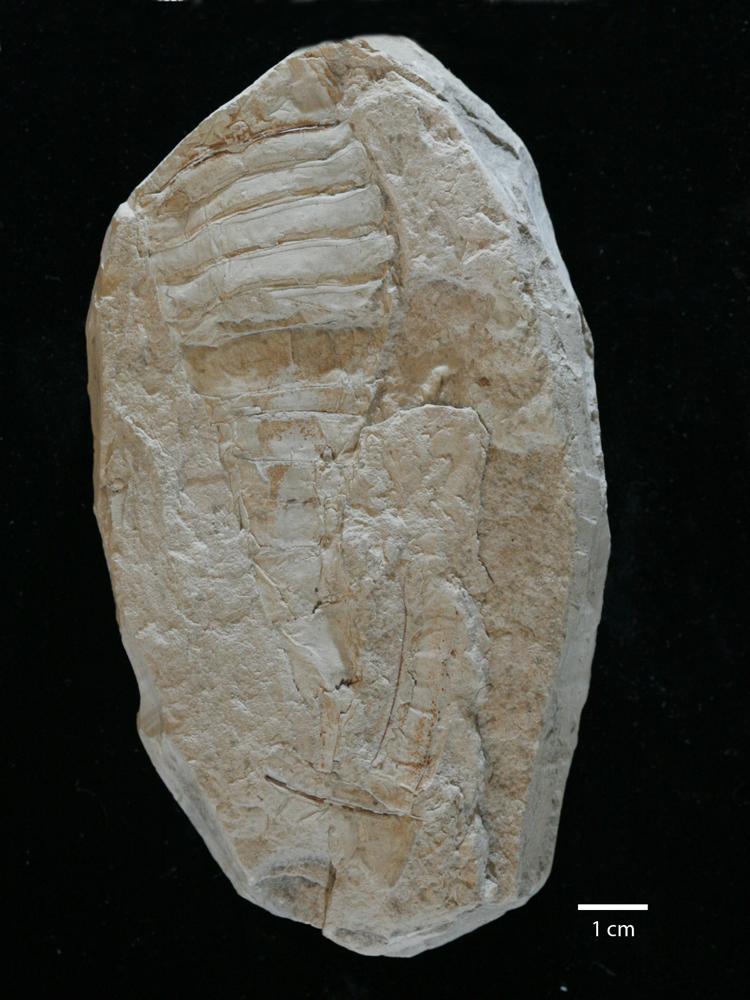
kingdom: Animalia
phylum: Arthropoda
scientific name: Arthropoda
